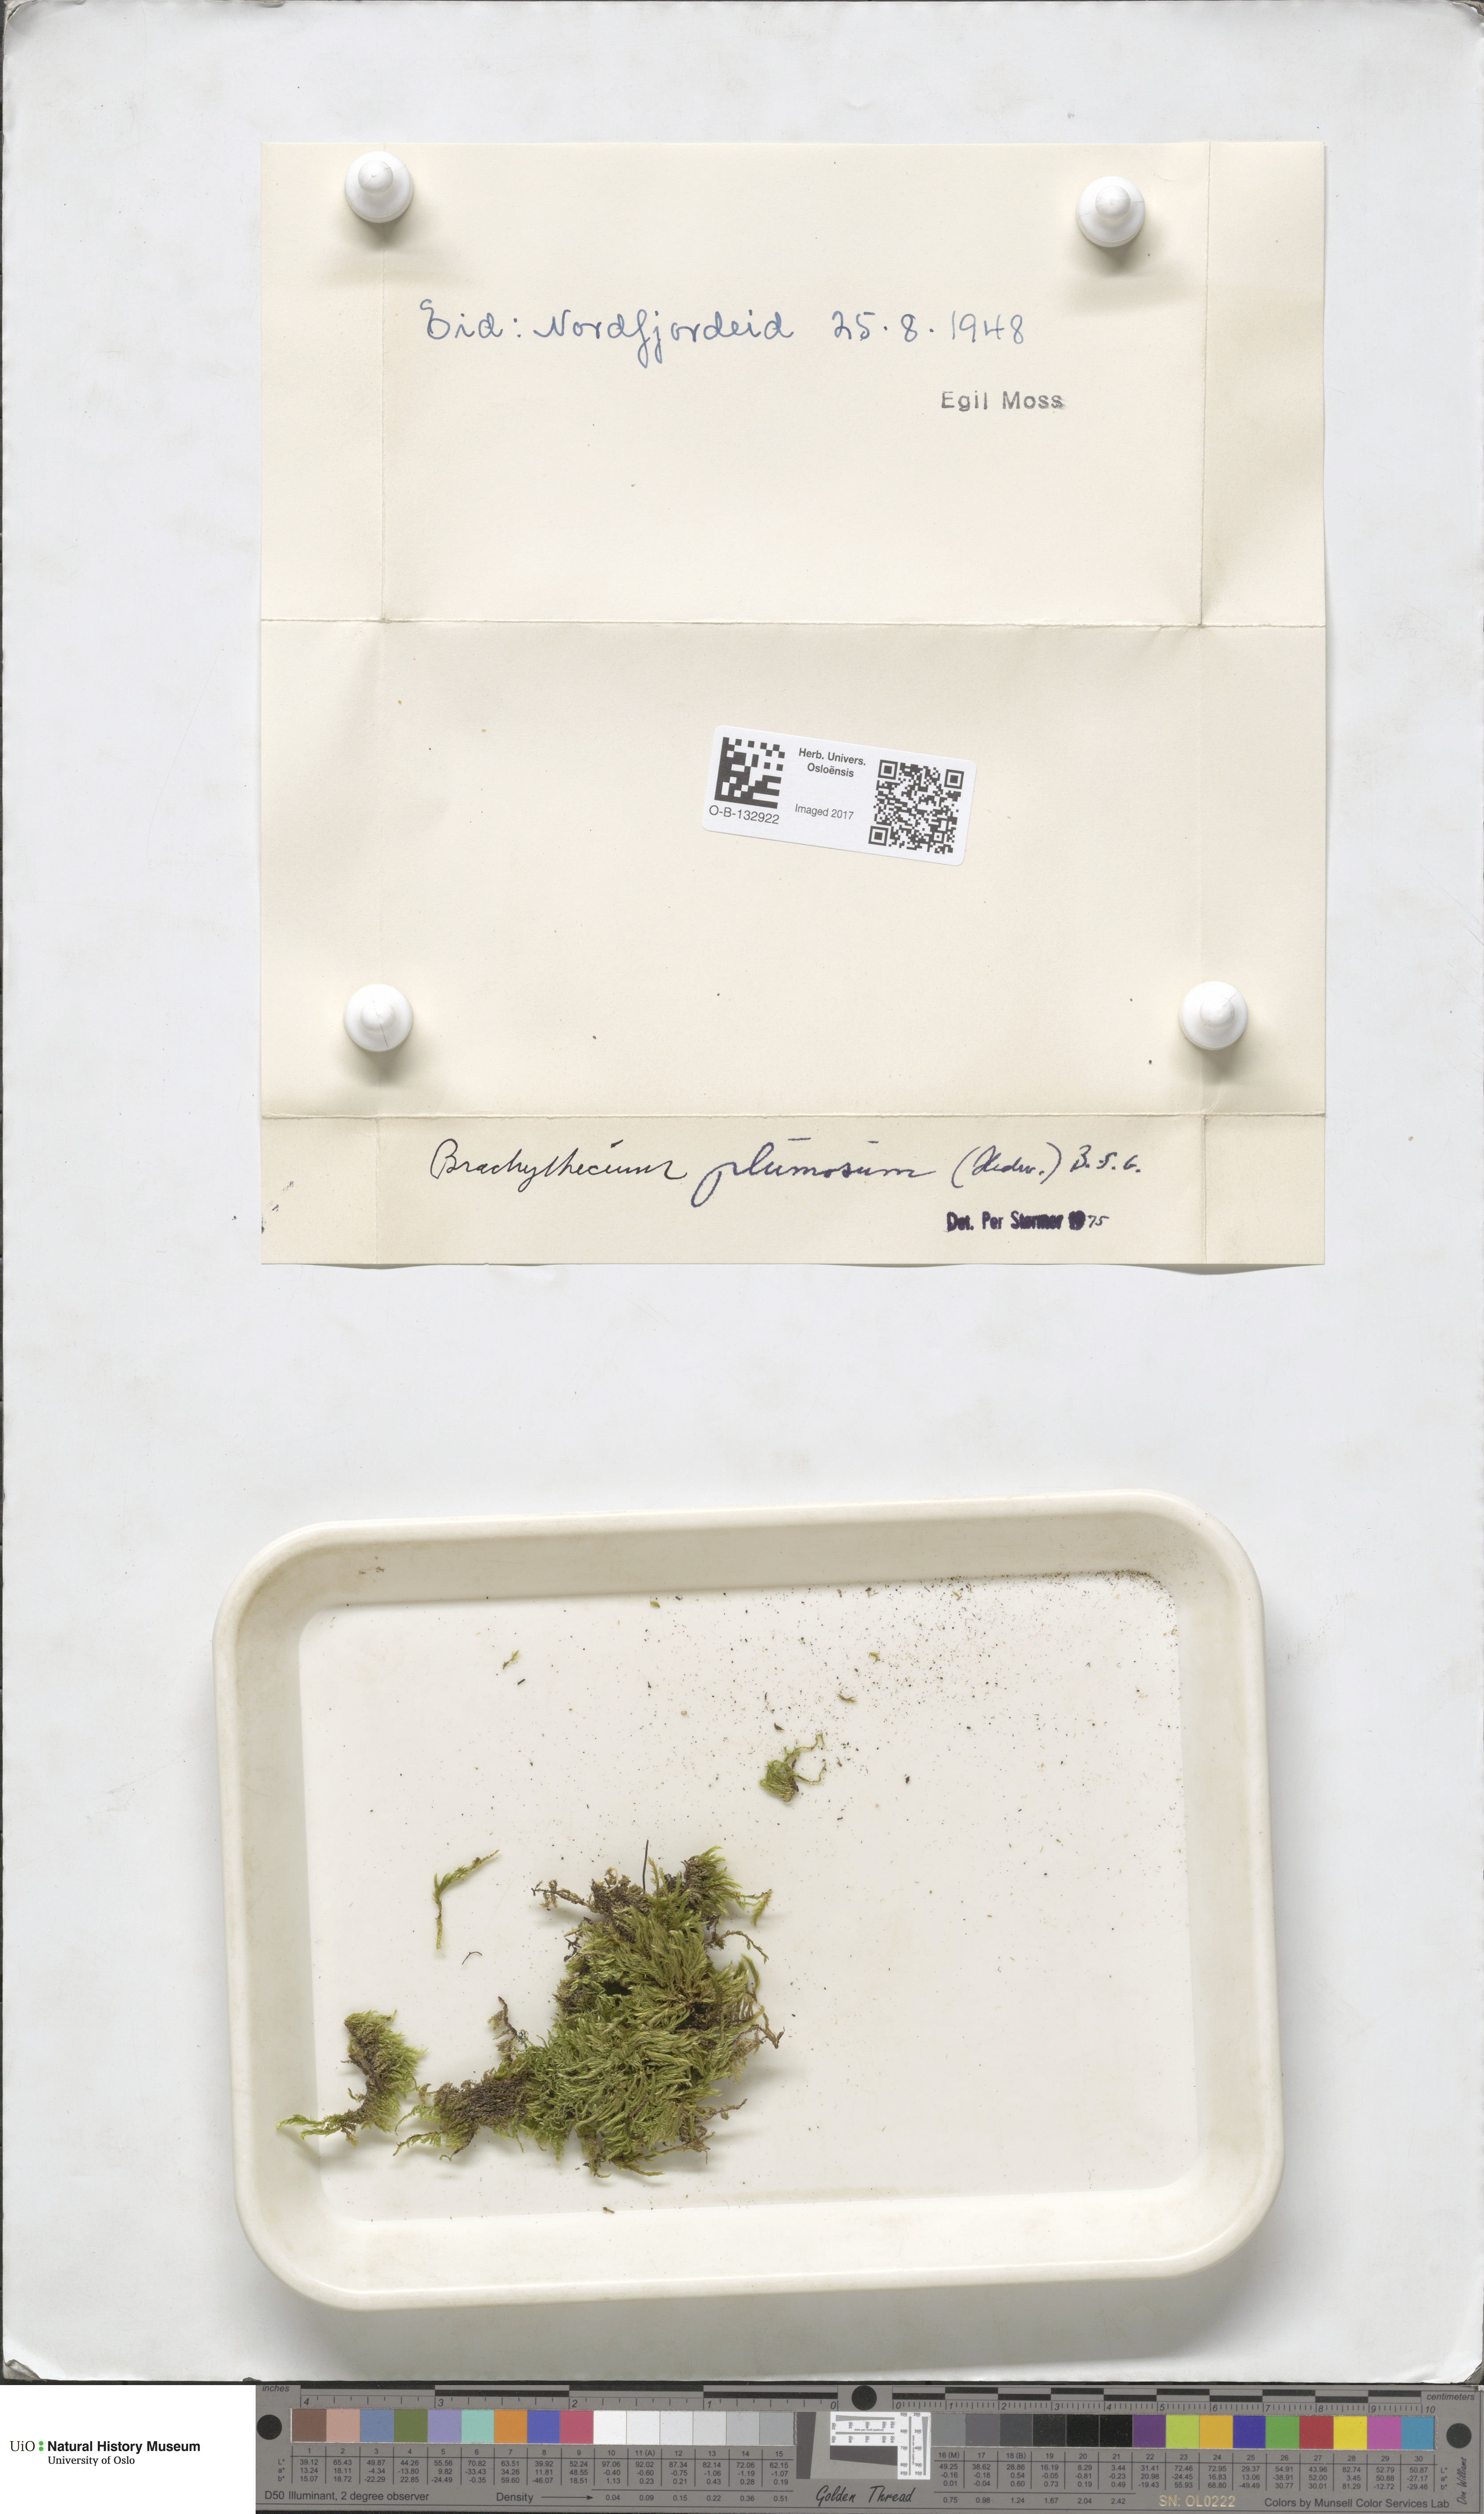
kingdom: Plantae
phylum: Bryophyta
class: Bryopsida
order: Hypnales
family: Brachytheciaceae
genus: Sciuro-hypnum
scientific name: Sciuro-hypnum plumosum
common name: Rusty feather-moss
